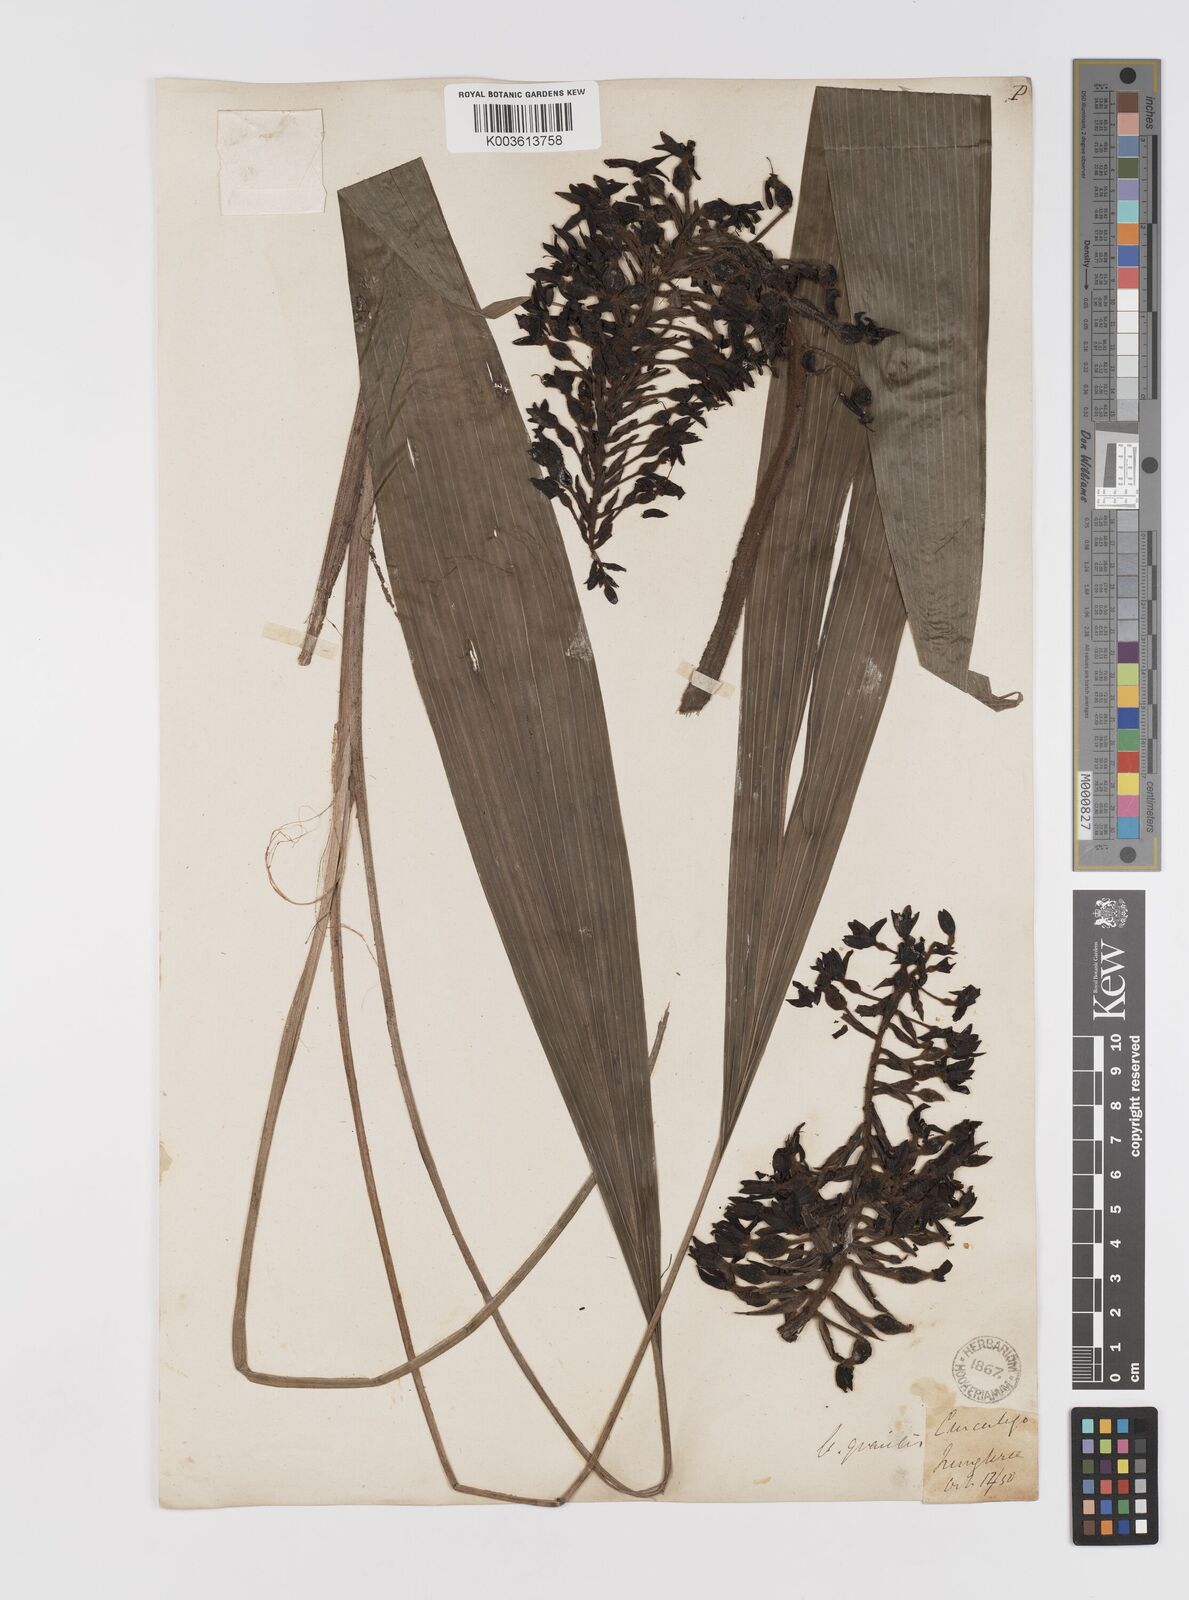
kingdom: Plantae
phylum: Tracheophyta
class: Liliopsida
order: Asparagales
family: Hypoxidaceae
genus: Curculigo
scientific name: Curculigo gracilis
